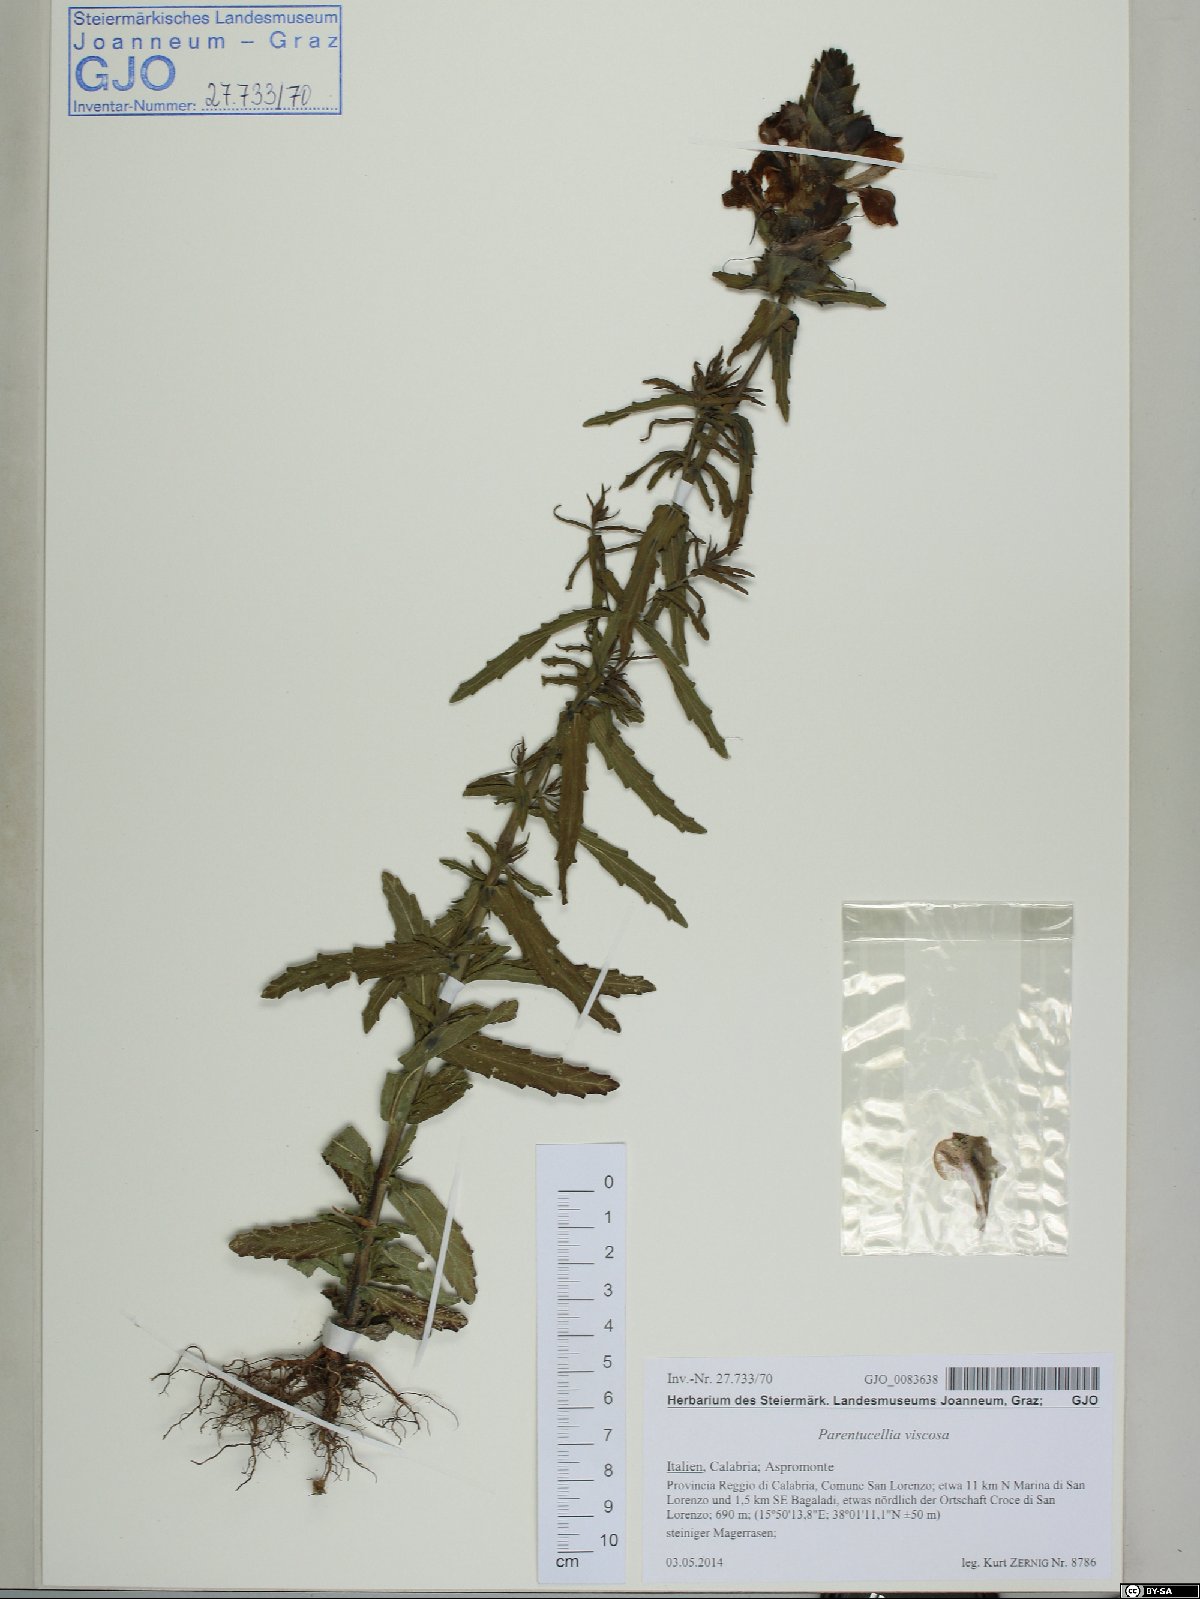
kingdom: Plantae
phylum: Tracheophyta
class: Magnoliopsida
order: Lamiales
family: Orobanchaceae
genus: Bellardia
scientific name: Bellardia viscosa
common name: Sticky parentucellia
